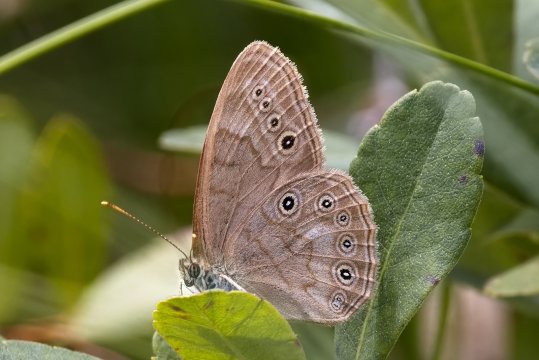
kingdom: Animalia
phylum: Arthropoda
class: Insecta
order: Lepidoptera
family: Nymphalidae
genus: Lethe
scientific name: Lethe eurydice
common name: Eyed Brown
